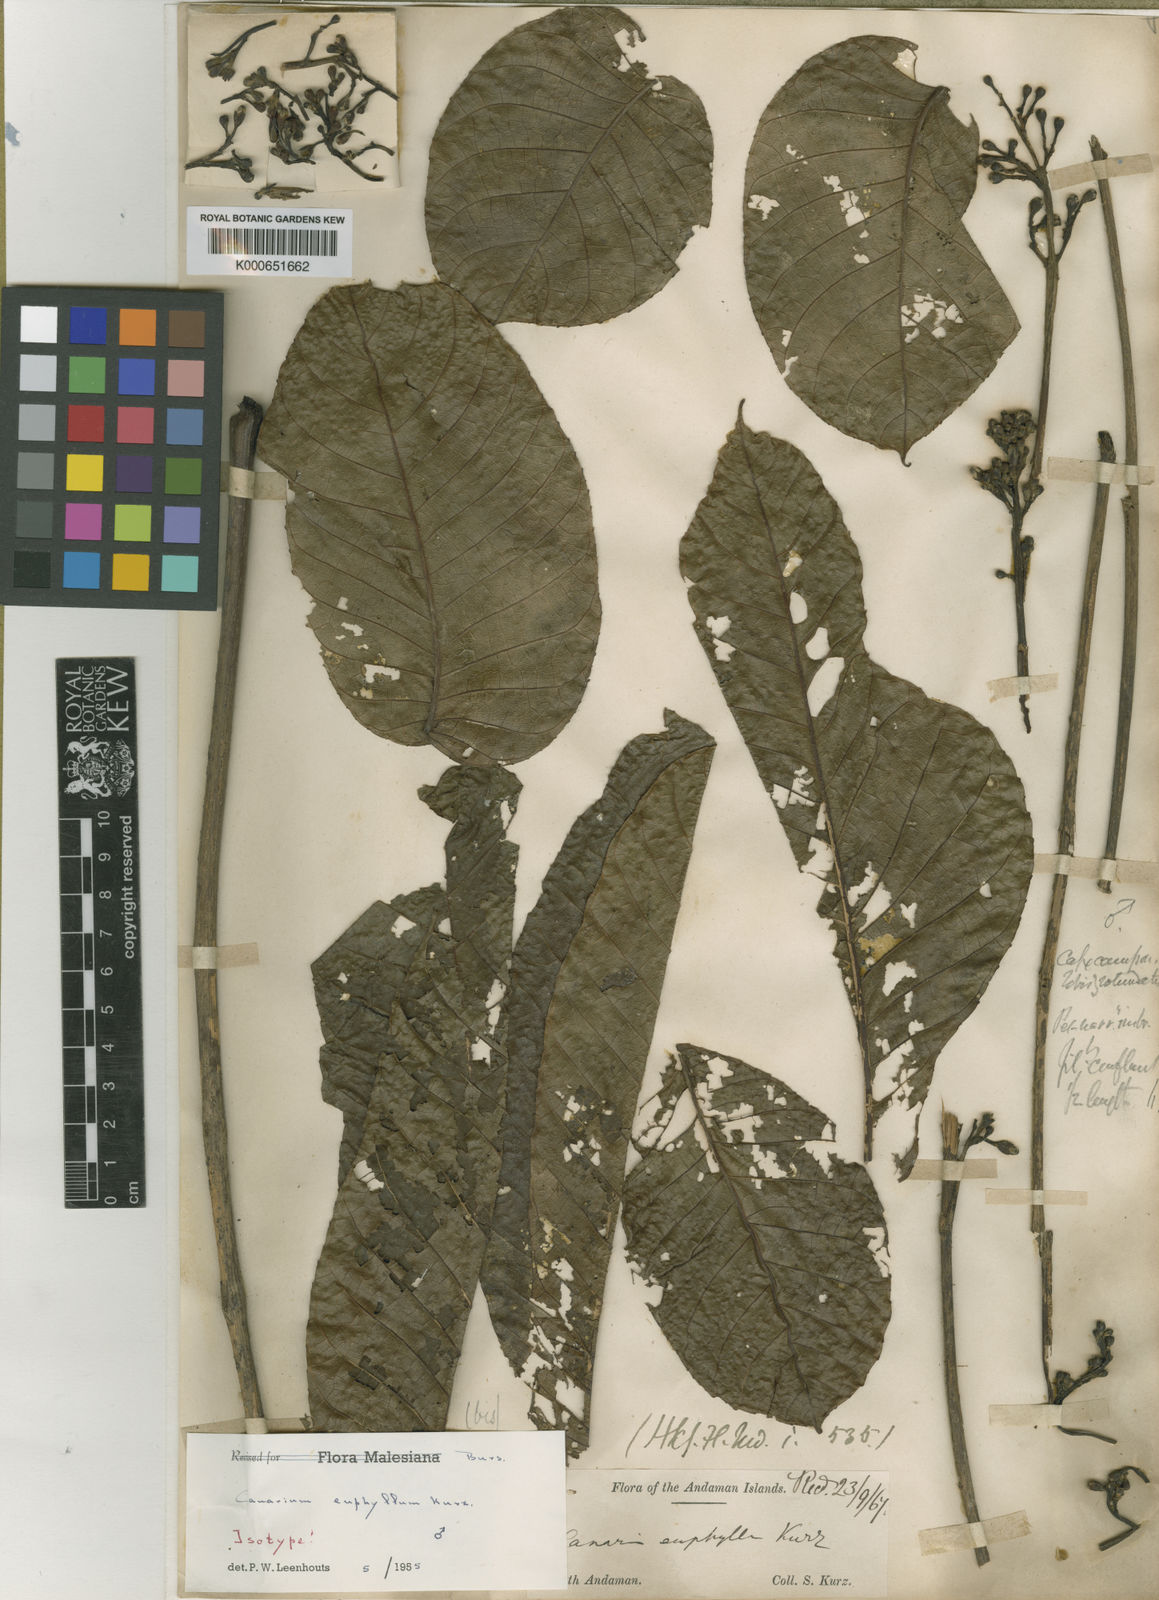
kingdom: Plantae
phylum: Tracheophyta
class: Magnoliopsida
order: Sapindales
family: Burseraceae
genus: Canarium
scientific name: Canarium euphyllum
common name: White dhup
